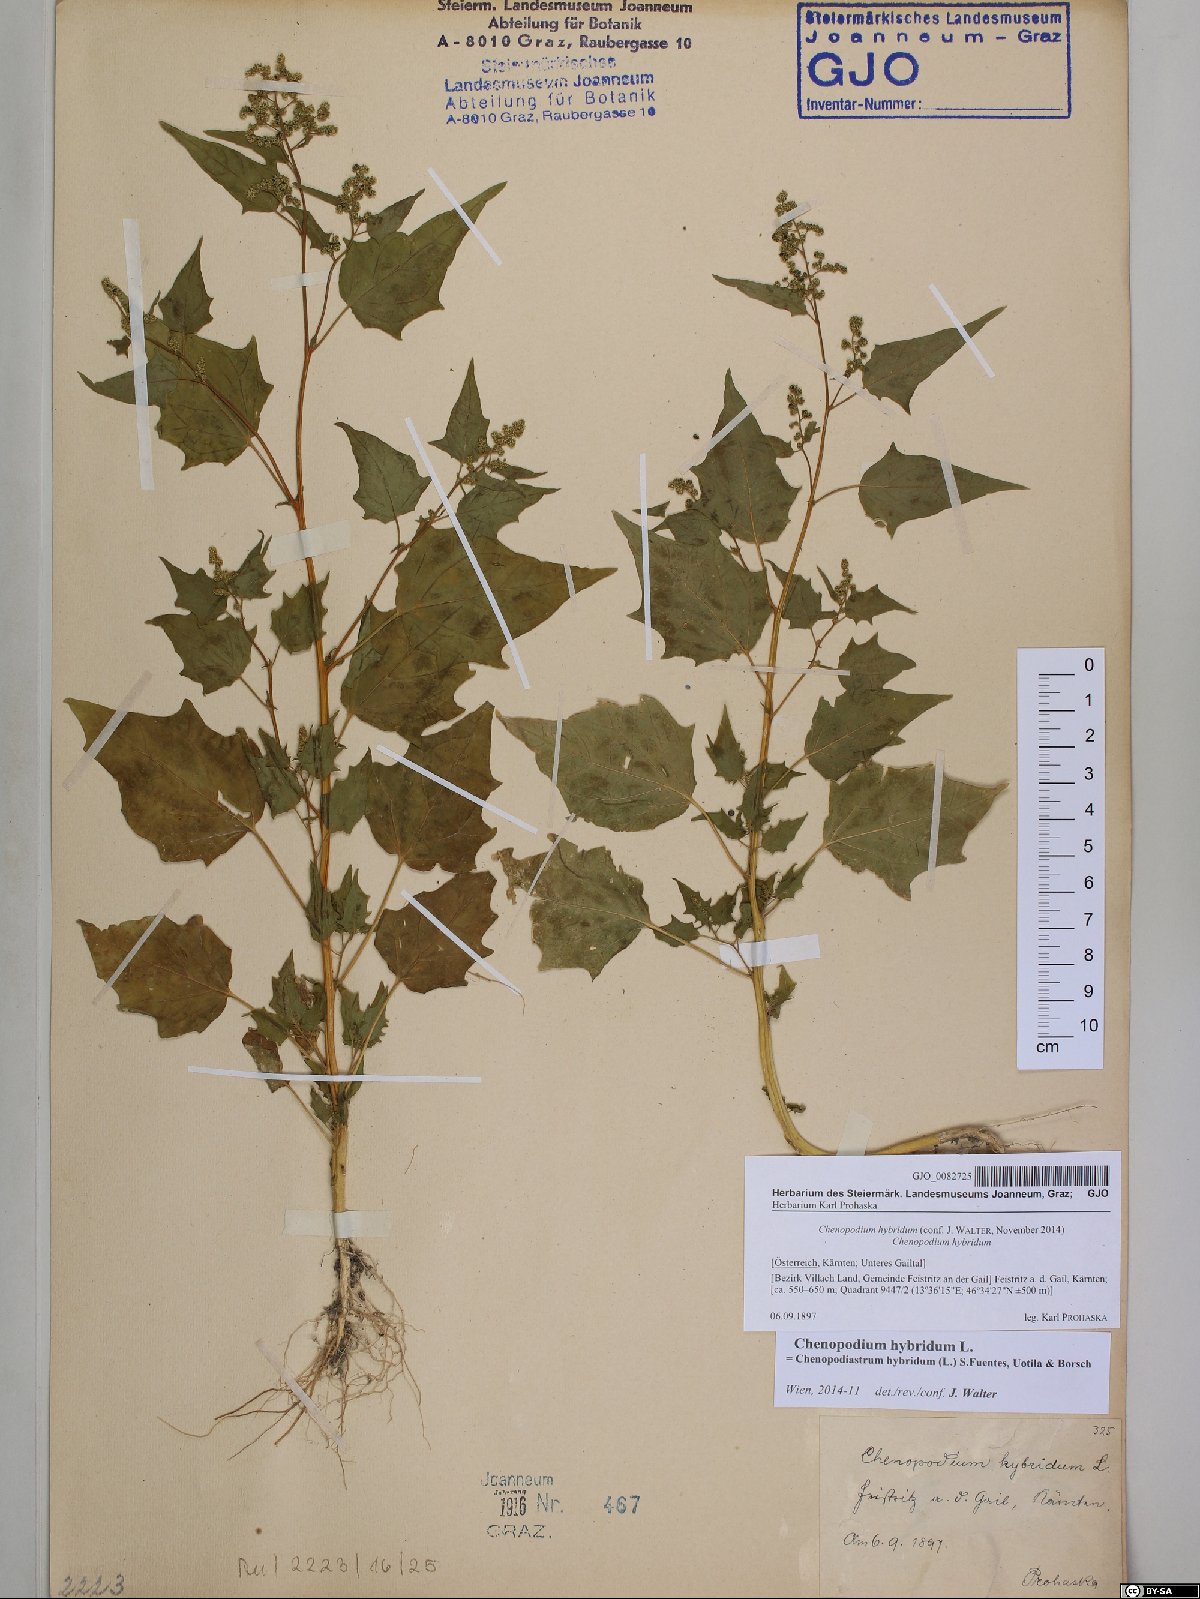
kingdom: Plantae
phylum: Tracheophyta
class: Magnoliopsida
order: Caryophyllales
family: Amaranthaceae
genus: Chenopodiastrum
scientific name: Chenopodiastrum hybridum
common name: Mapleleaf goosefoot
